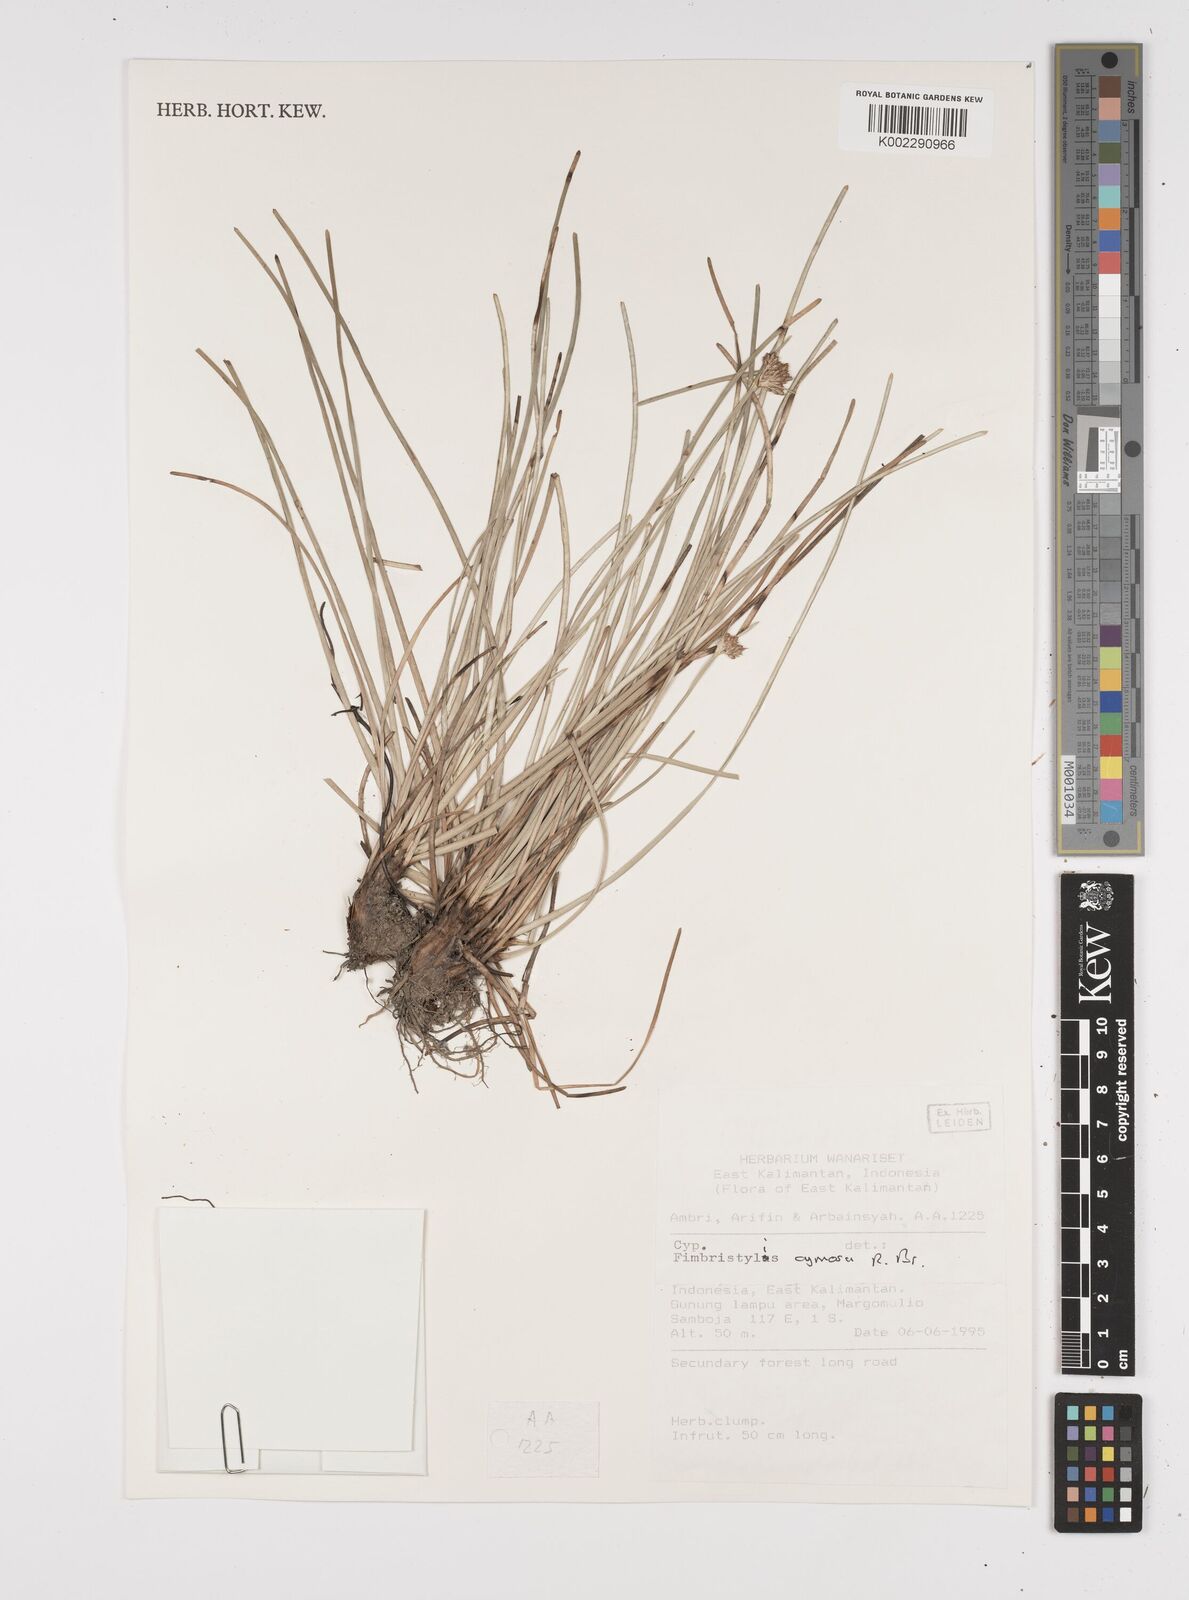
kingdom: Plantae
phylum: Tracheophyta
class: Liliopsida
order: Poales
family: Cyperaceae
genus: Fimbristylis
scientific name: Fimbristylis cymosa
